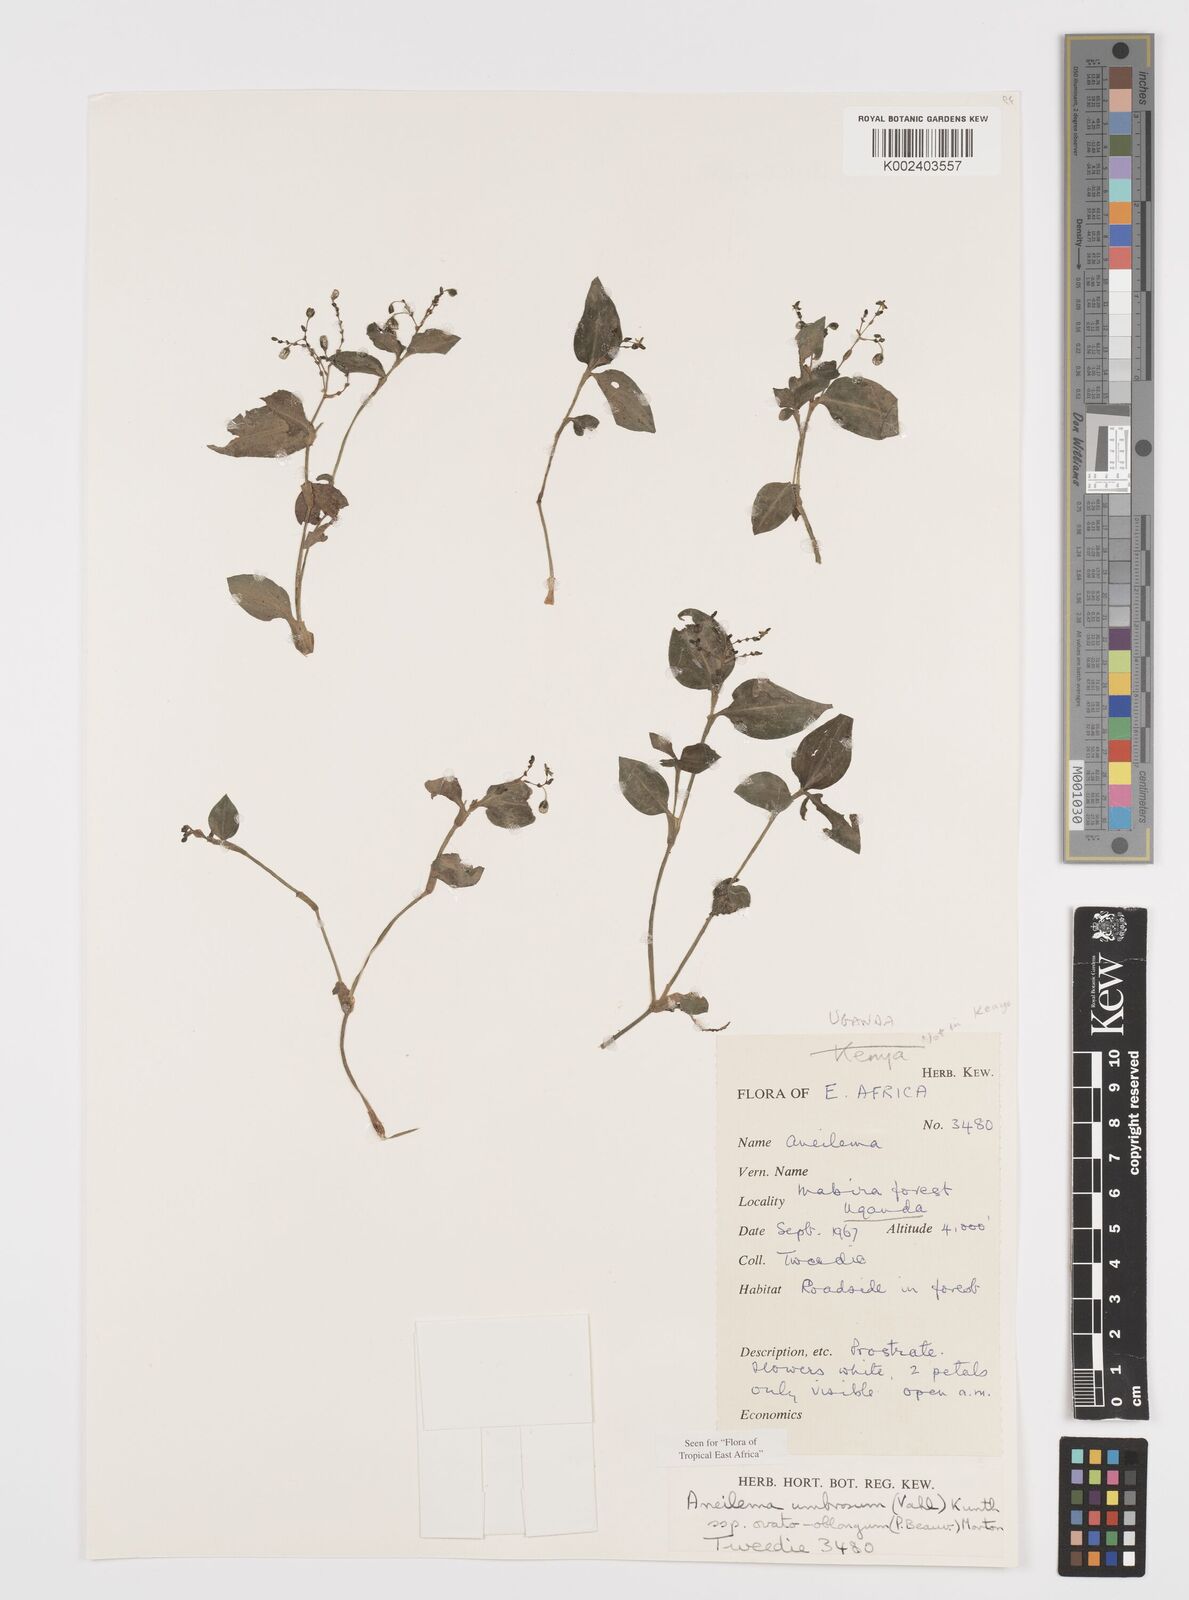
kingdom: Plantae
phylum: Tracheophyta
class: Liliopsida
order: Commelinales
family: Commelinaceae
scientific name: Commelinaceae
